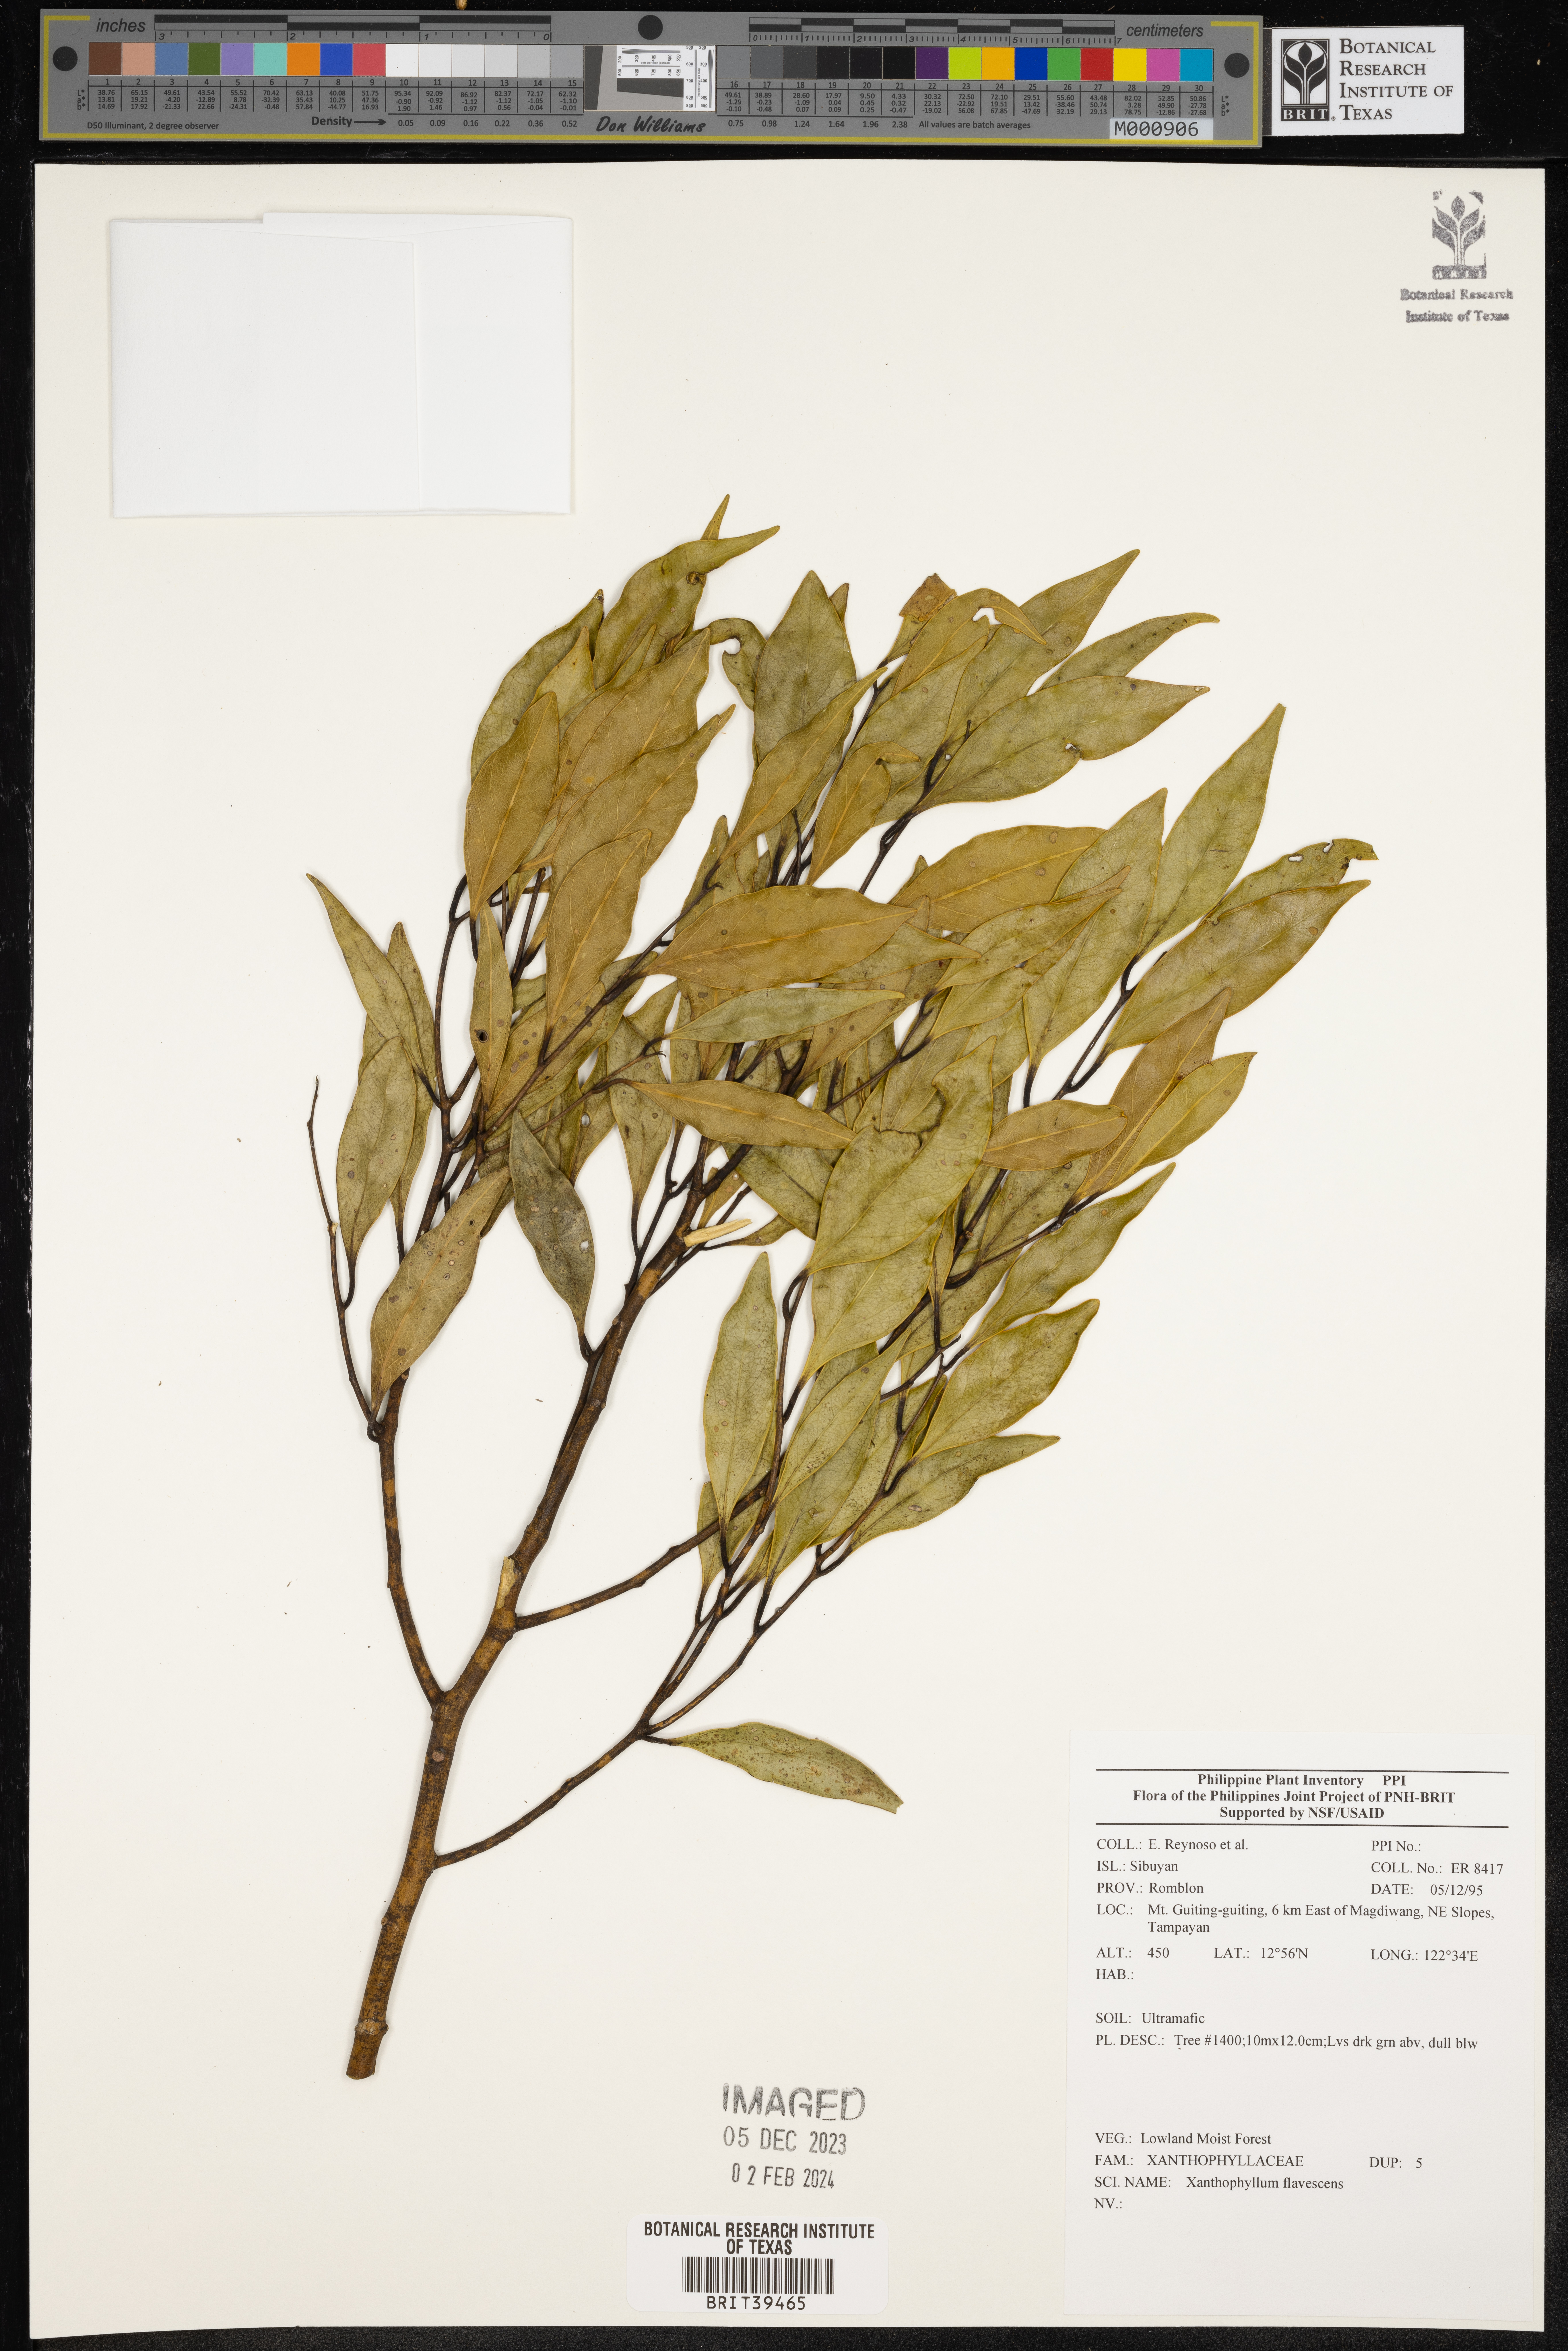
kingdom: Plantae
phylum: Tracheophyta
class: Magnoliopsida
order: Fabales
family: Polygalaceae
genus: Xanthophyllum
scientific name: Xanthophyllum flavescens
